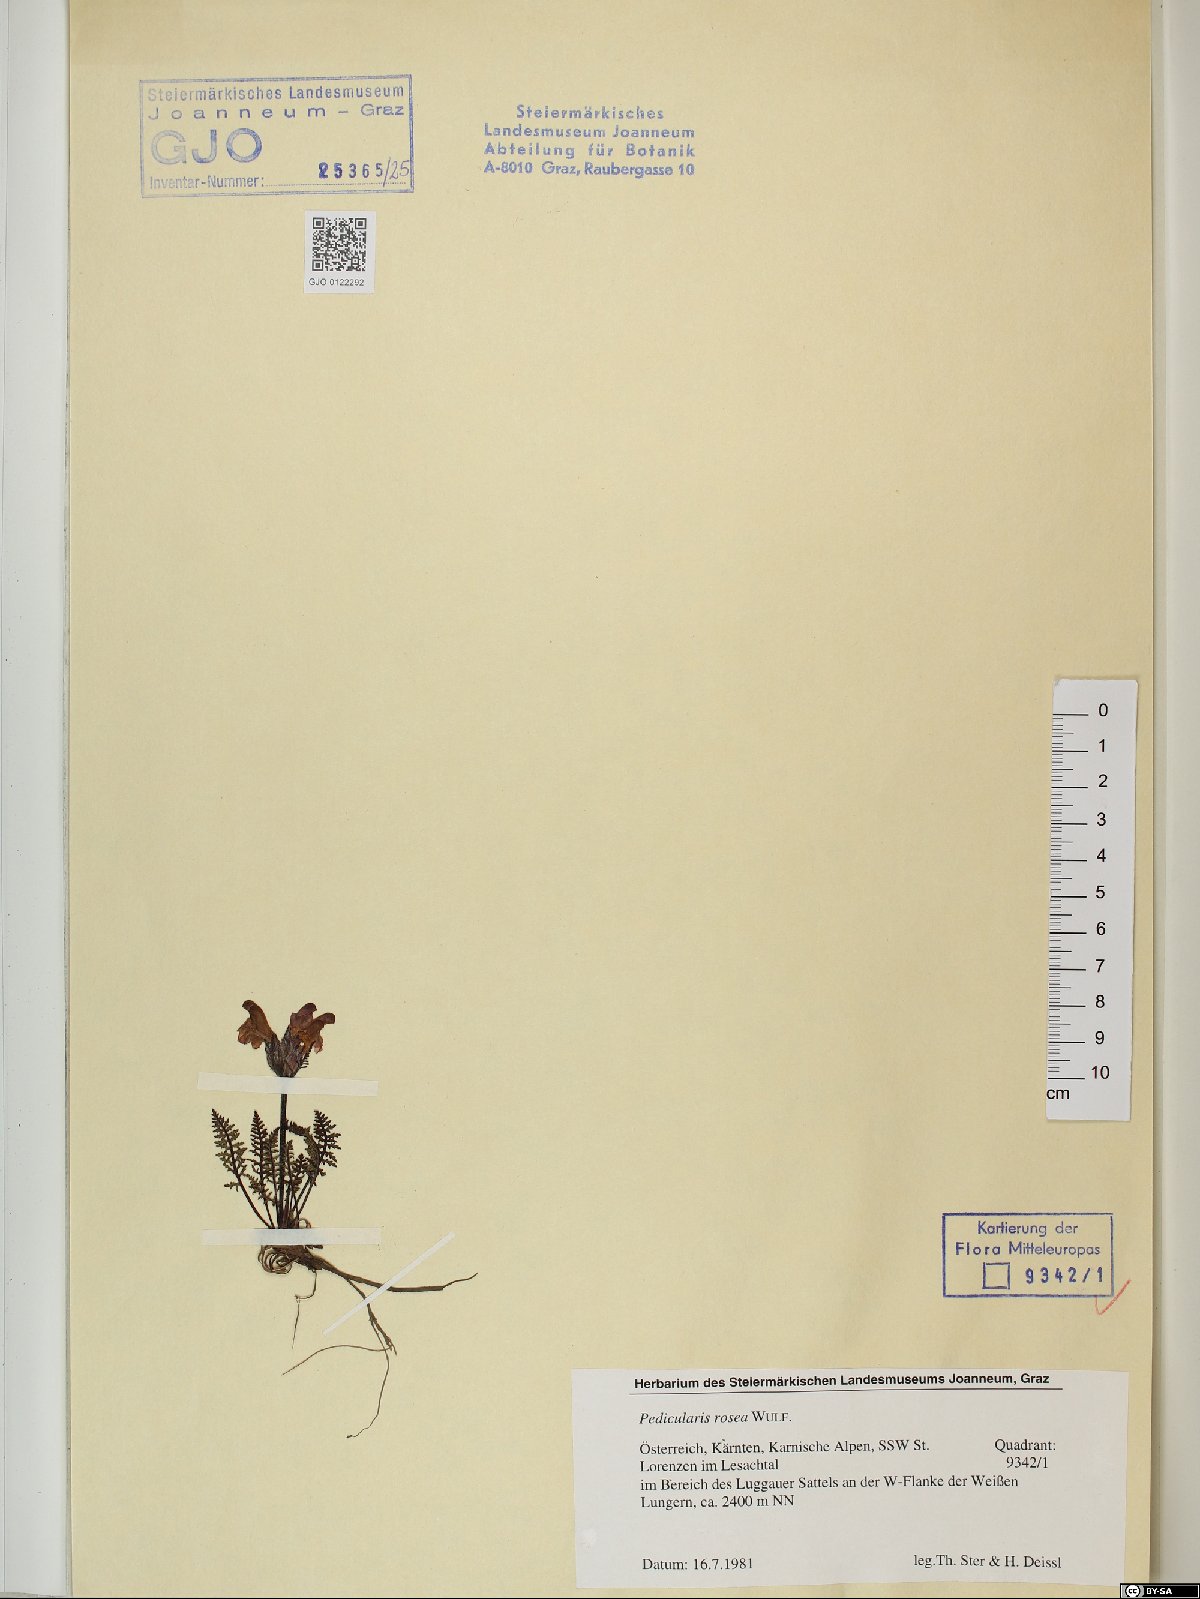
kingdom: Plantae
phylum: Tracheophyta
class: Magnoliopsida
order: Lamiales
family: Orobanchaceae
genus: Pedicularis
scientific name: Pedicularis rosea
